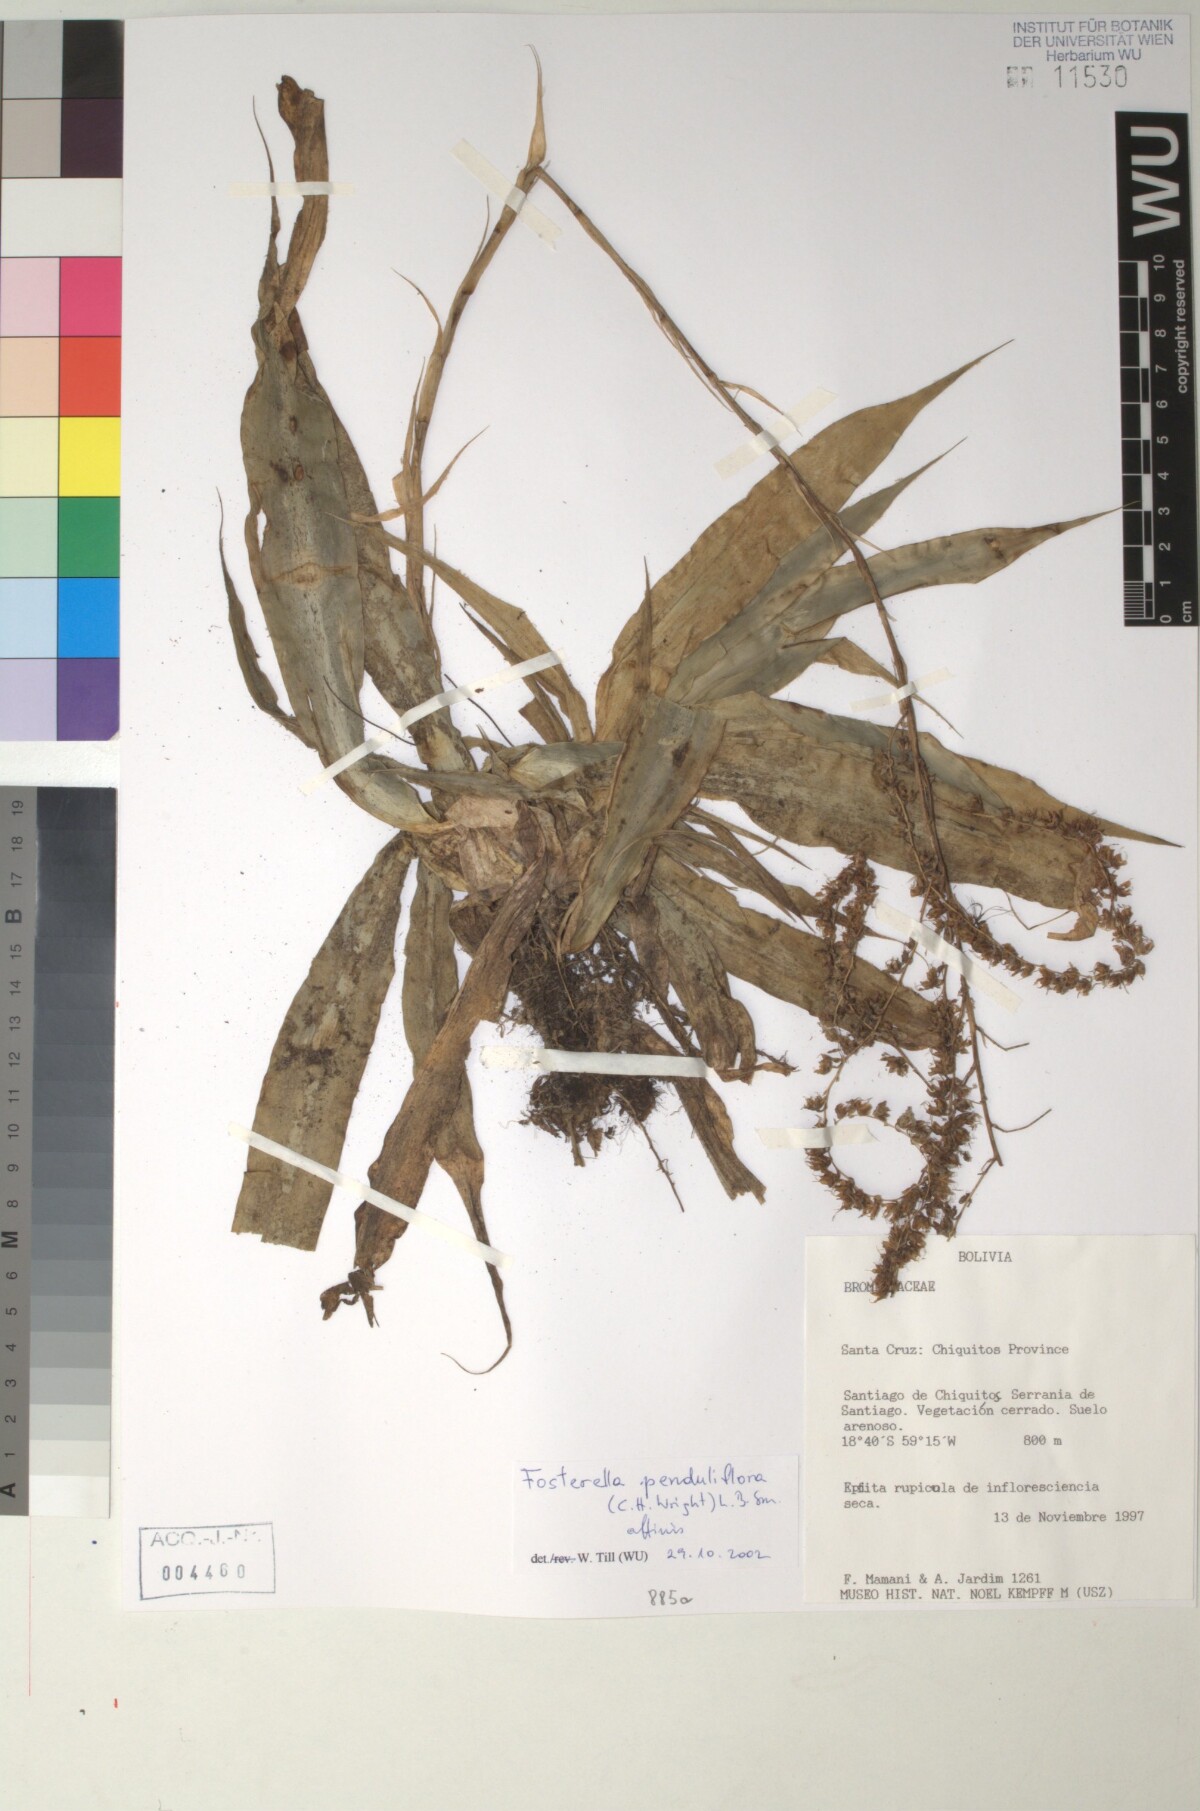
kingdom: Plantae
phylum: Tracheophyta
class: Liliopsida
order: Poales
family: Bromeliaceae
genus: Fosterella
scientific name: Fosterella yuvinkae
